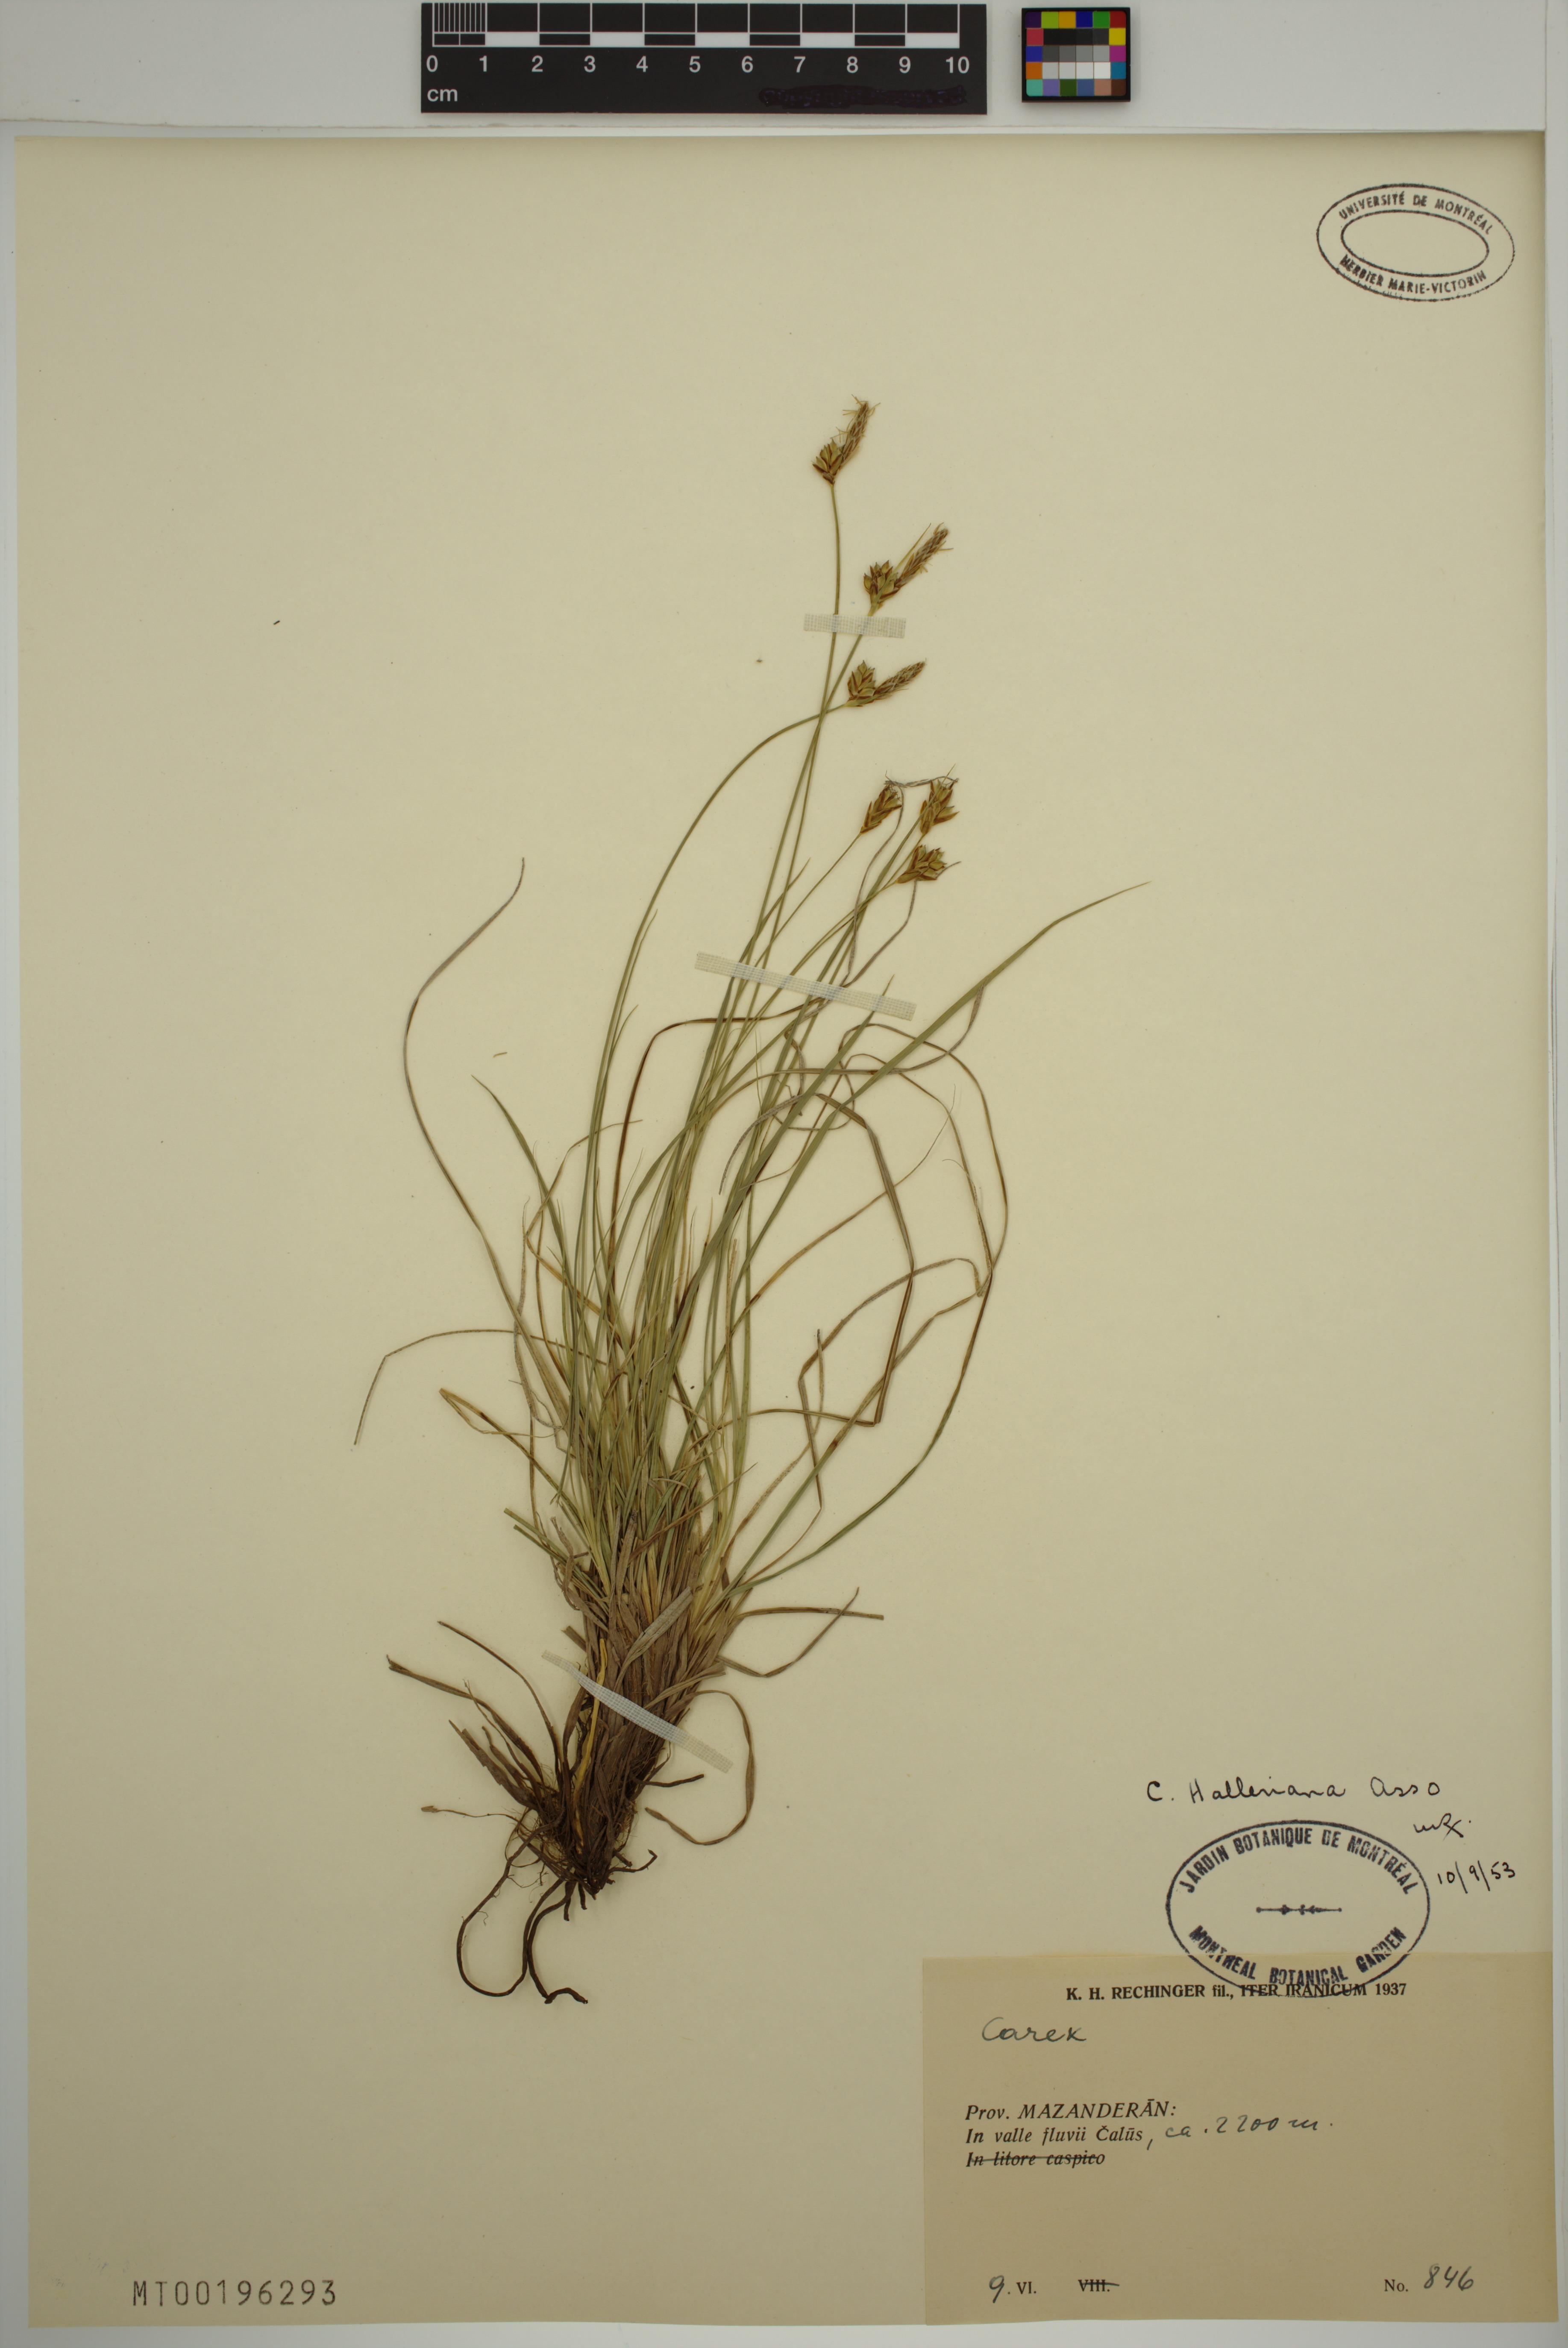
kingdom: Plantae
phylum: Tracheophyta
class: Liliopsida
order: Poales
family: Cyperaceae
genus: Carex
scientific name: Carex halleriana
